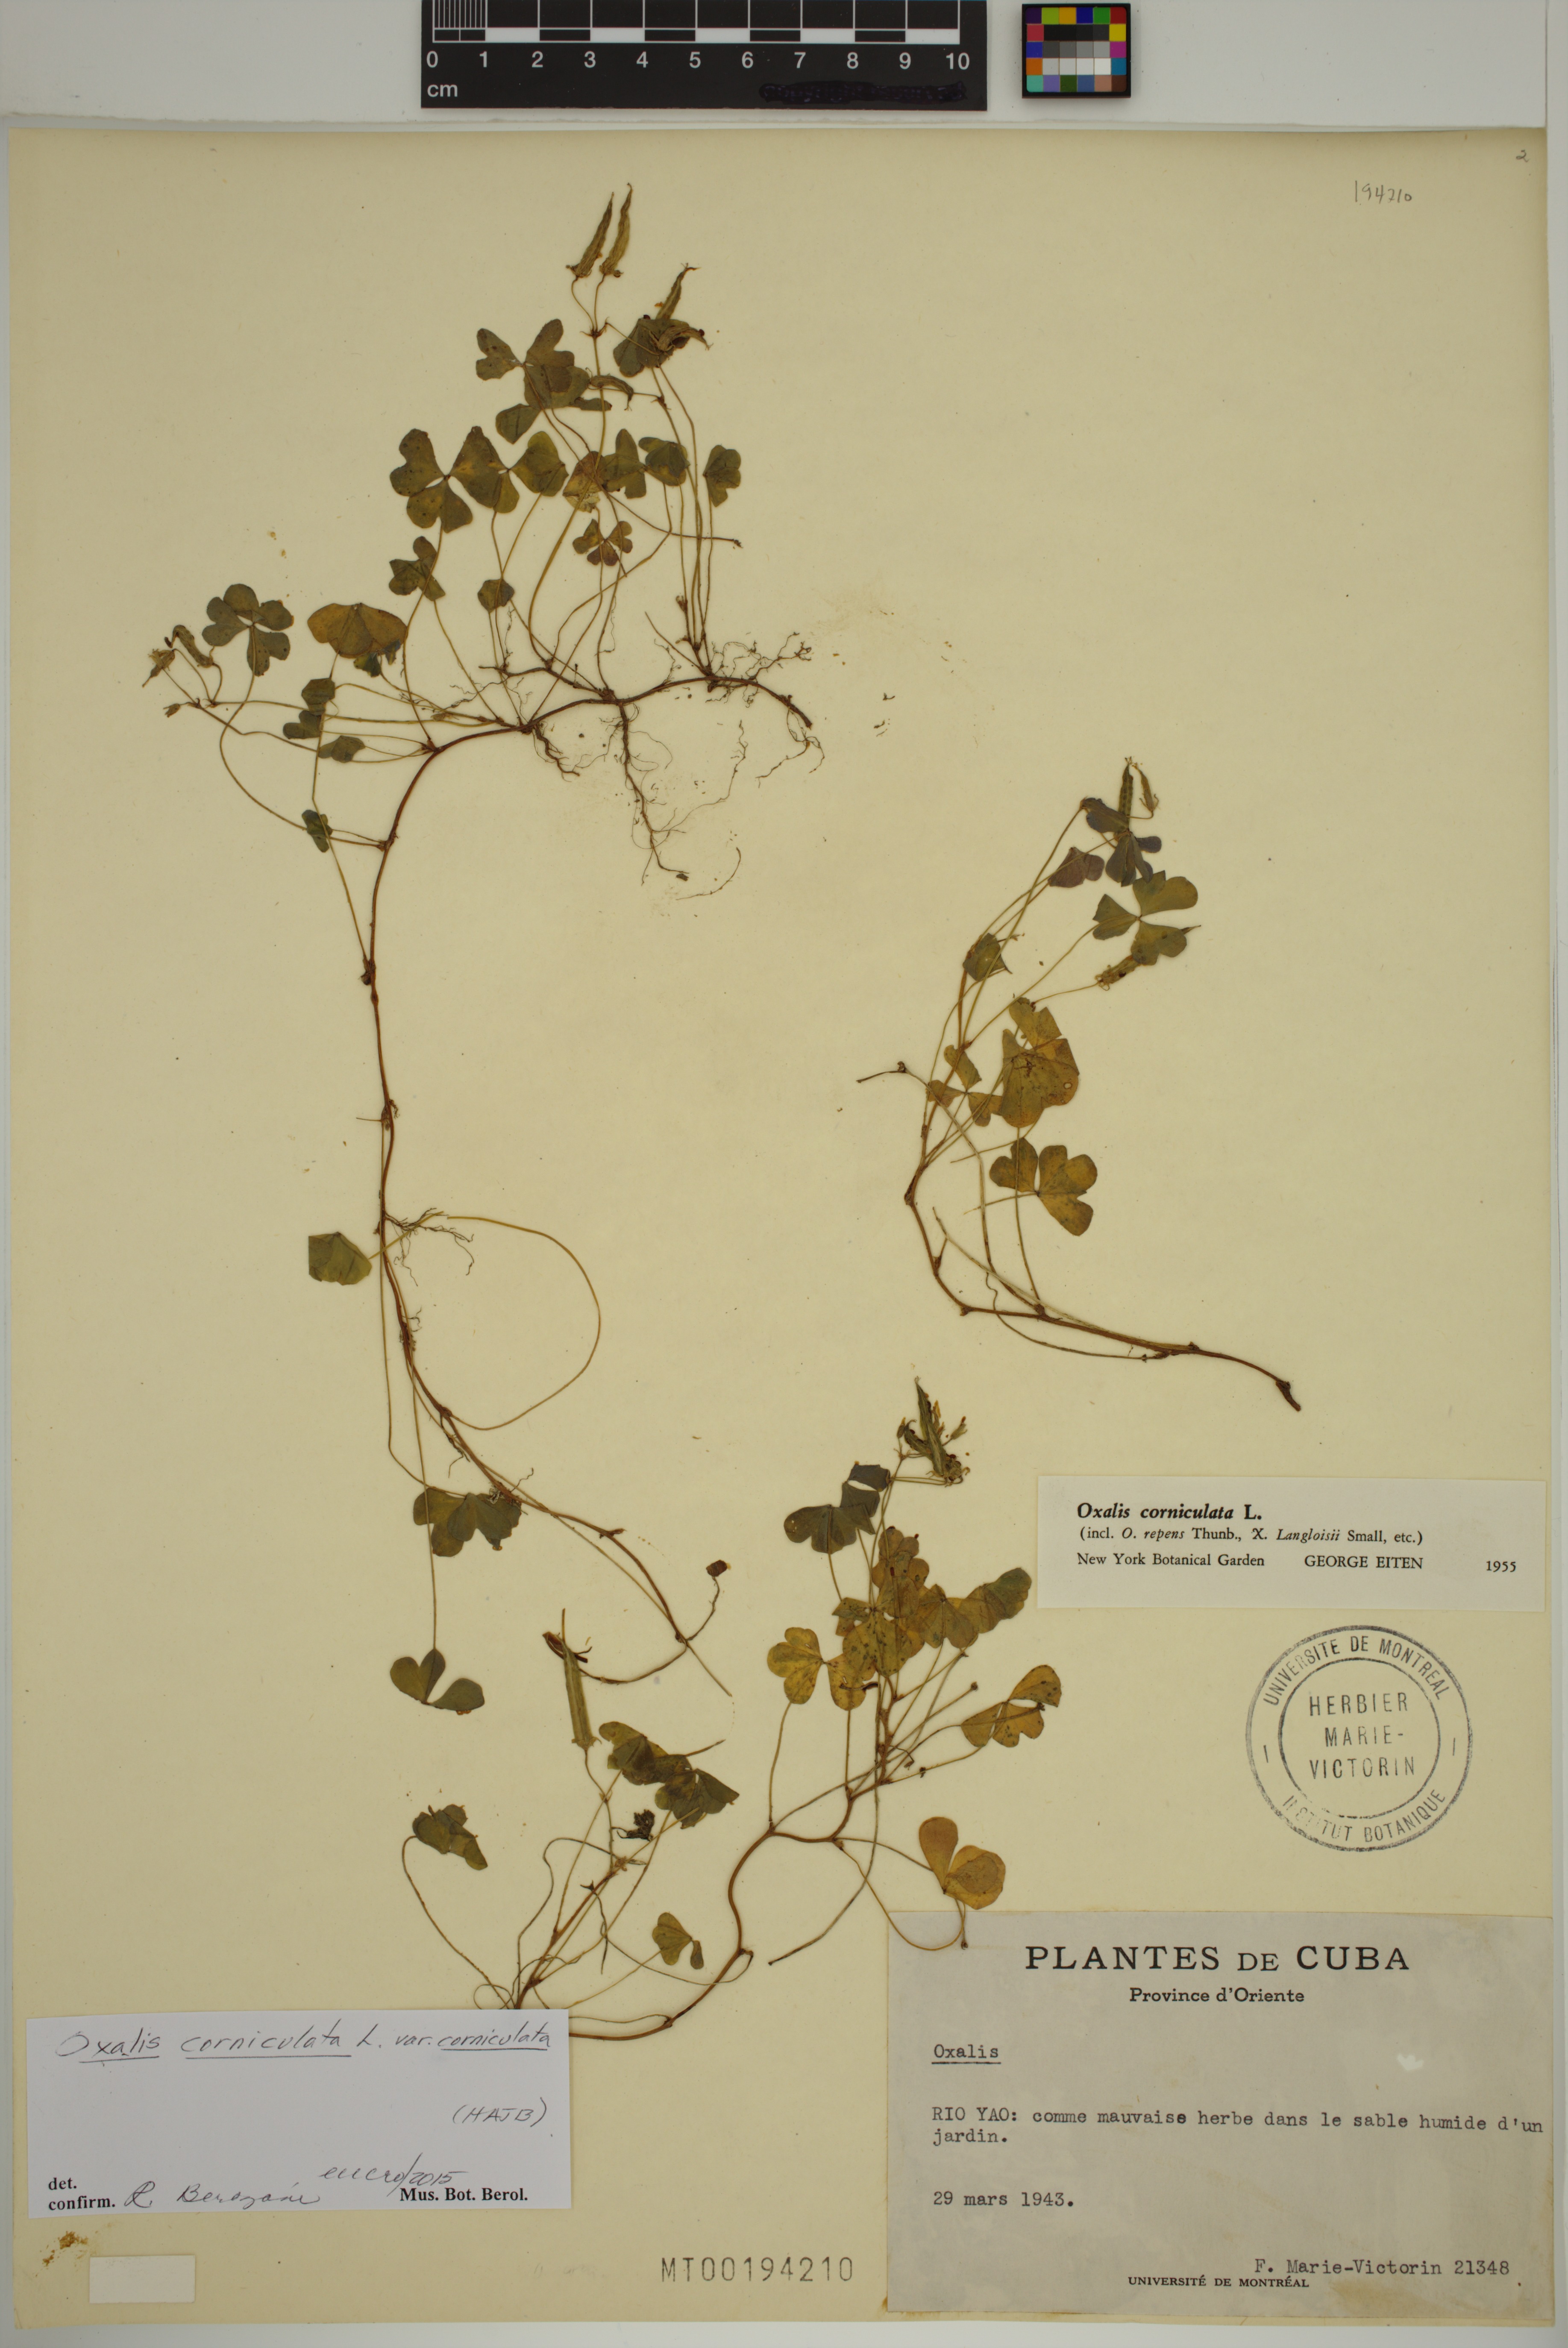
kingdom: Plantae
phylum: Tracheophyta
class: Magnoliopsida
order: Oxalidales
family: Oxalidaceae
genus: Oxalis
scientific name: Oxalis corniculata
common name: Procumbent yellow-sorrel
